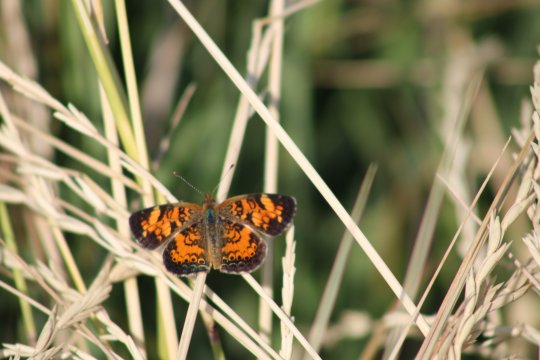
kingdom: Animalia
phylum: Arthropoda
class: Insecta
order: Lepidoptera
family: Nymphalidae
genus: Phyciodes
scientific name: Phyciodes tharos
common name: Northern Crescent
